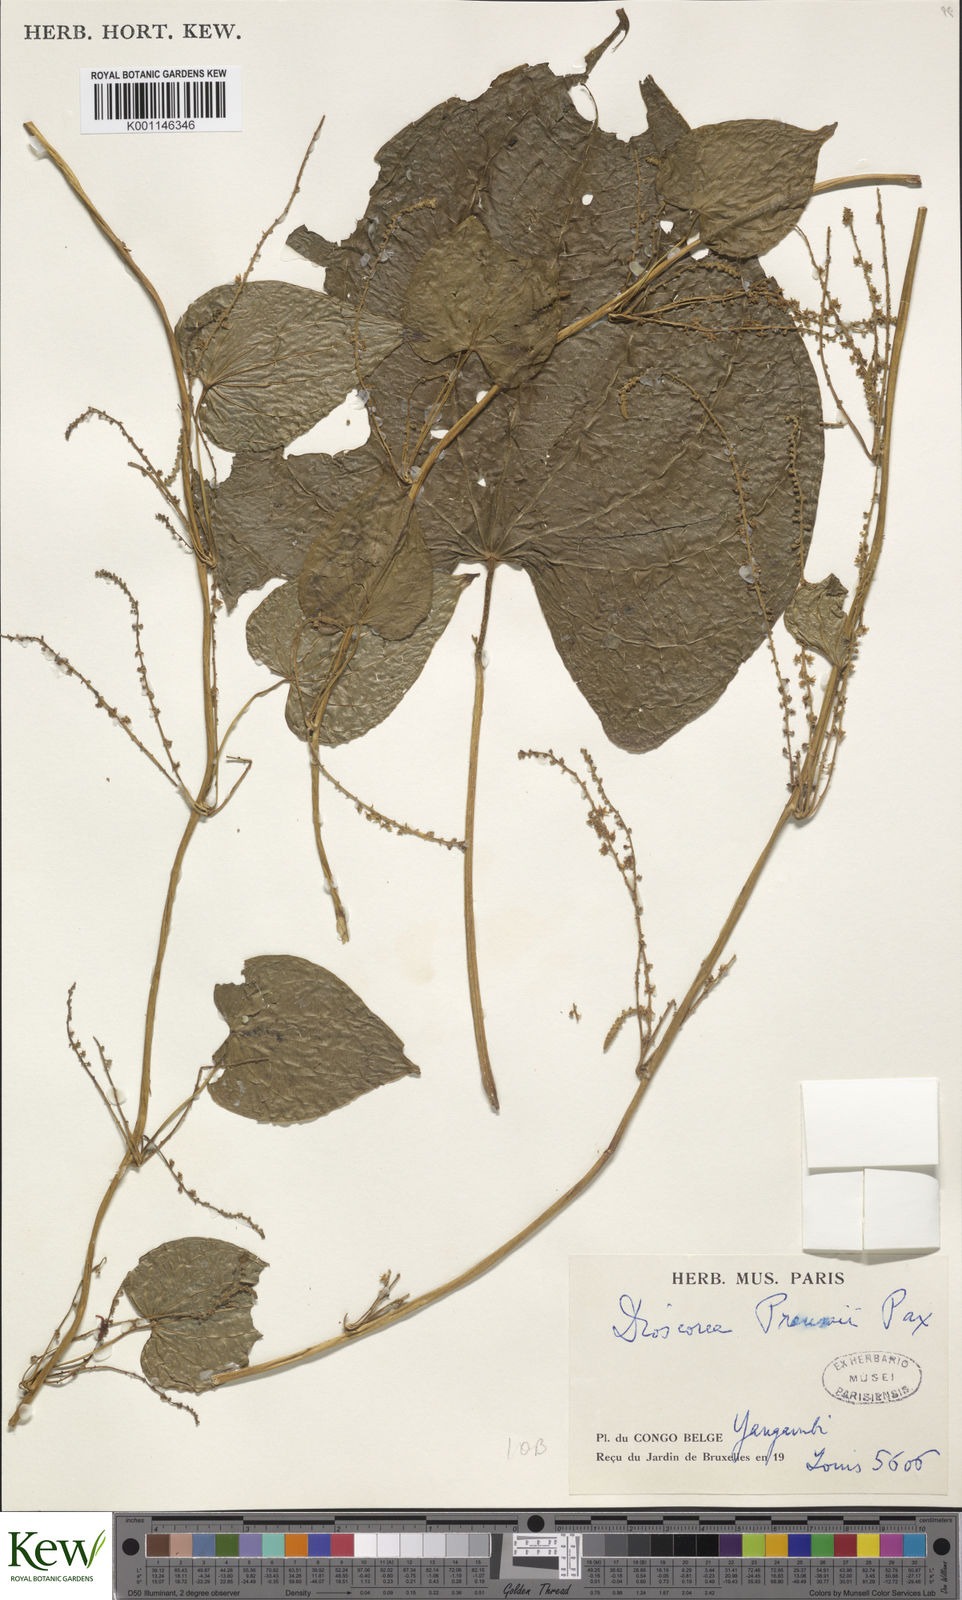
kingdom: Plantae
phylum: Tracheophyta
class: Liliopsida
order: Dioscoreales
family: Dioscoreaceae
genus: Dioscorea
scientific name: Dioscorea preussii
